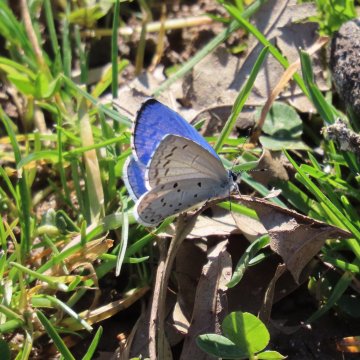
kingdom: Animalia
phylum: Arthropoda
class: Insecta
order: Lepidoptera
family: Lycaenidae
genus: Cyaniris
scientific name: Cyaniris neglecta
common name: Summer Azure
